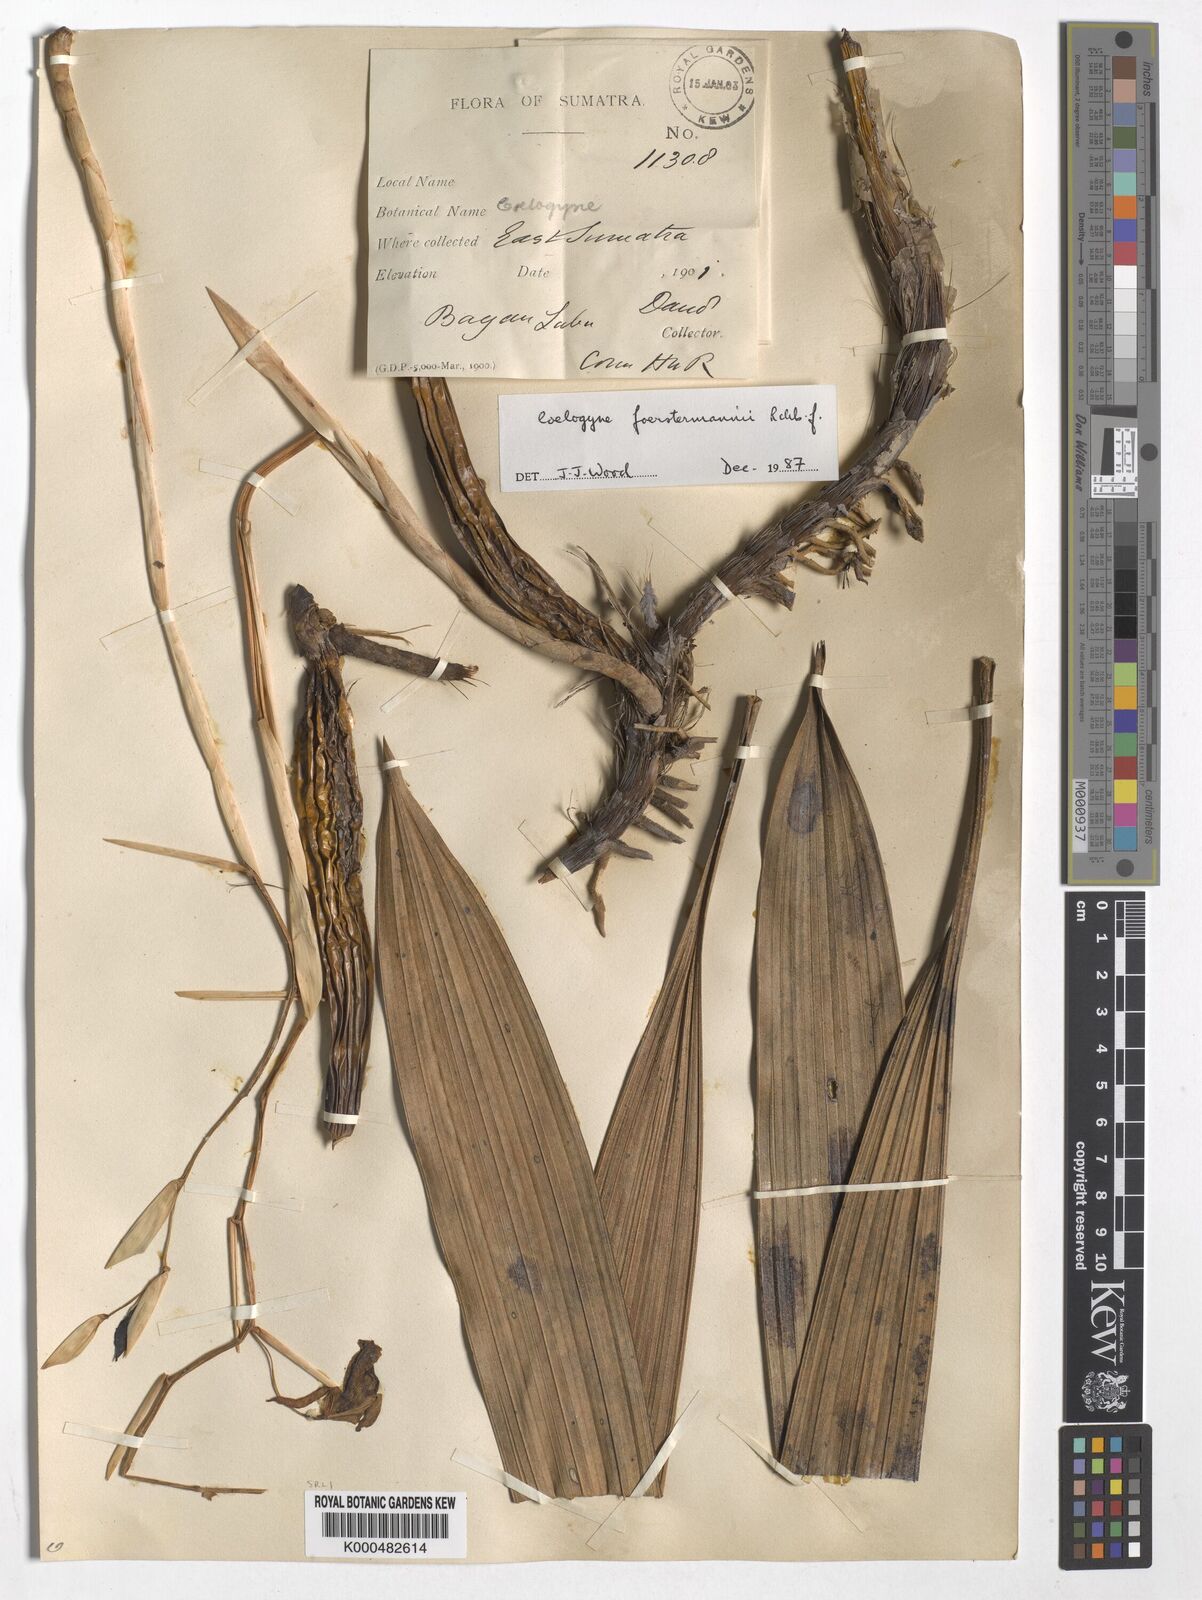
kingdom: Plantae
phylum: Tracheophyta
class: Liliopsida
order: Asparagales
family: Orchidaceae
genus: Coelogyne
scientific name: Coelogyne
